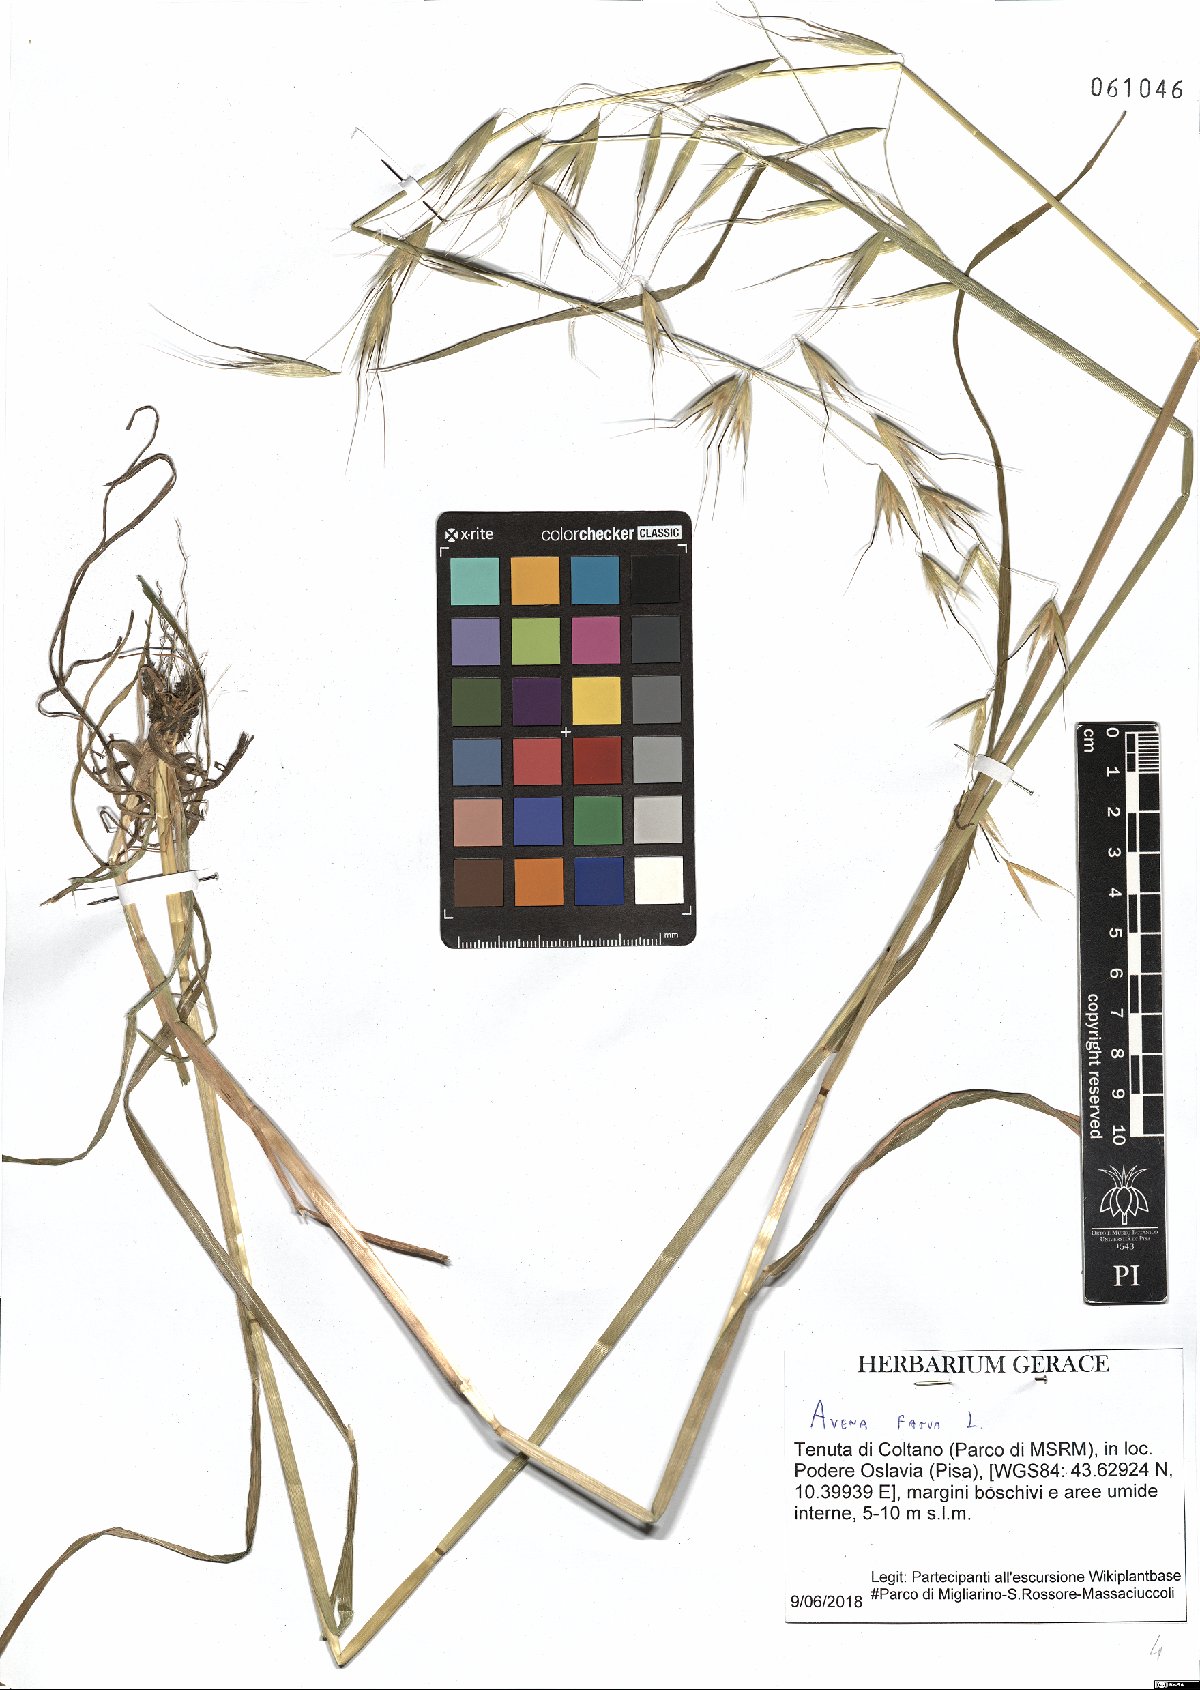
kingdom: Plantae
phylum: Tracheophyta
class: Liliopsida
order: Poales
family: Poaceae
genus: Avena
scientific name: Avena fatua
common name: Wild oat
